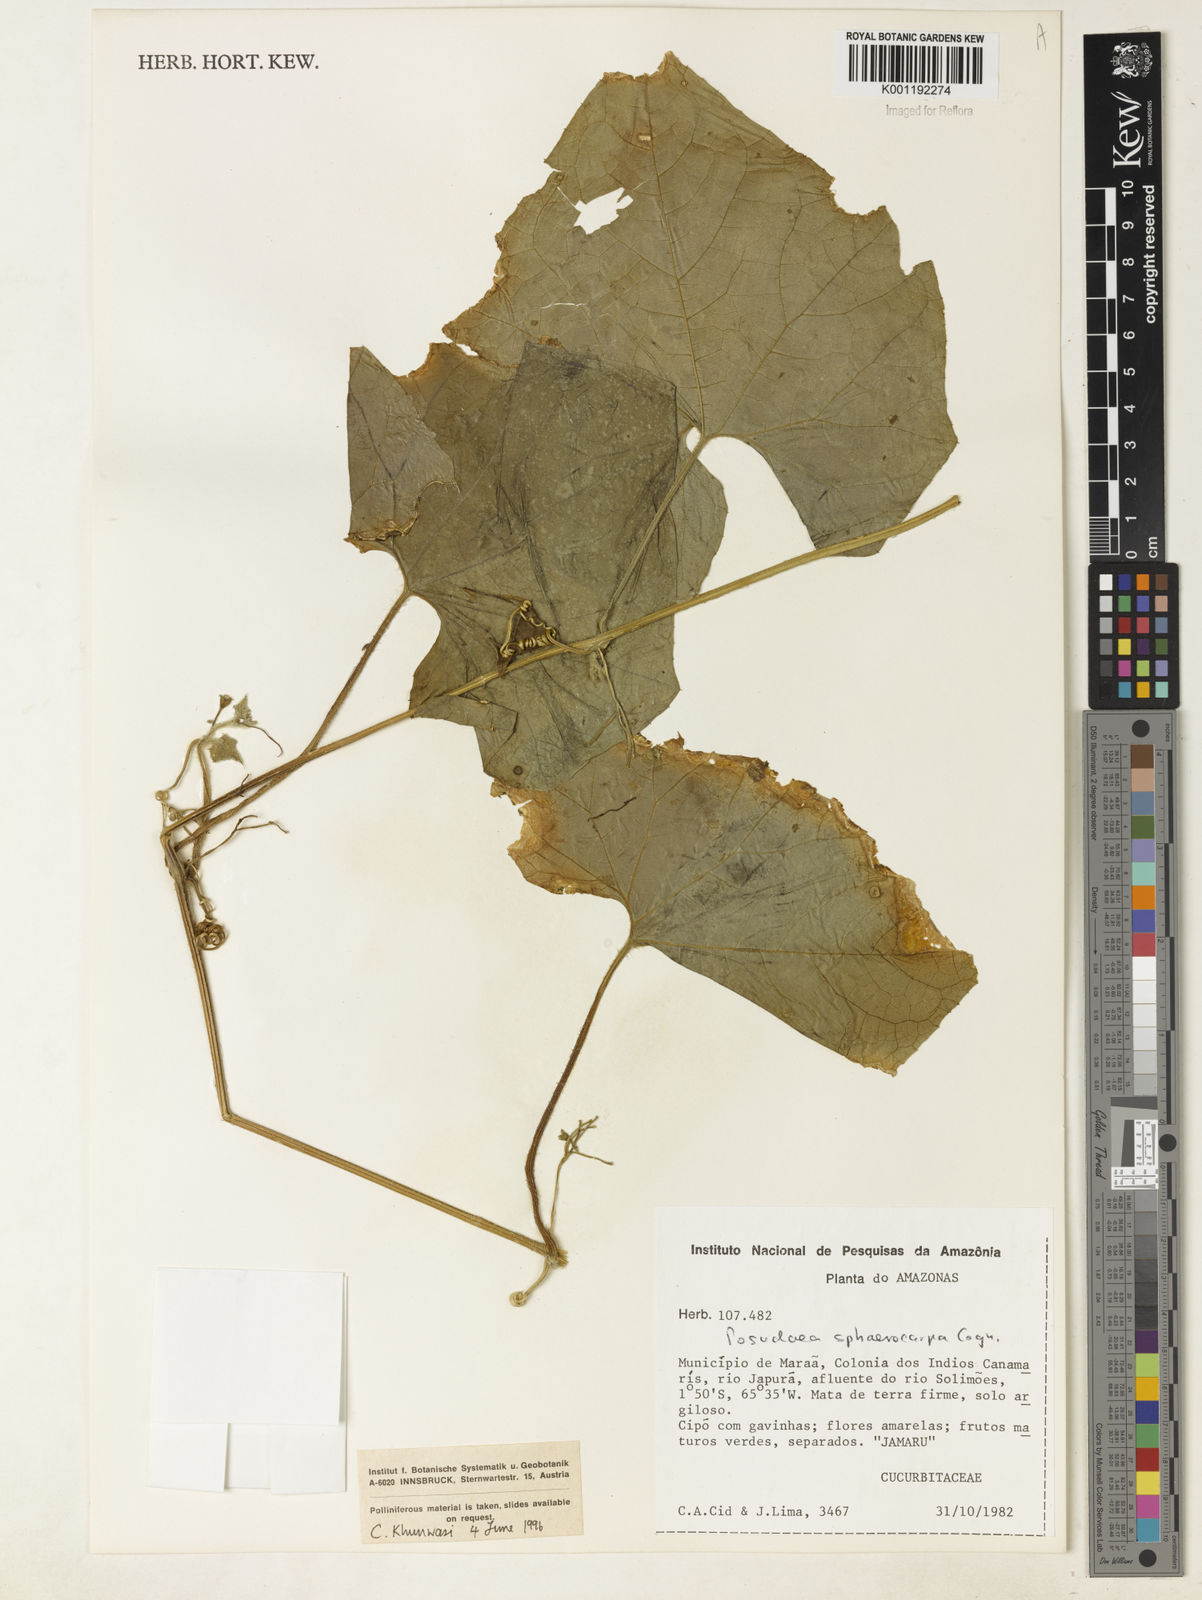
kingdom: Plantae
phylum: Tracheophyta
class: Magnoliopsida
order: Cucurbitales
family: Cucurbitaceae
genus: Melothria
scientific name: Melothria sphaerocarpa
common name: Egusi-itoo
